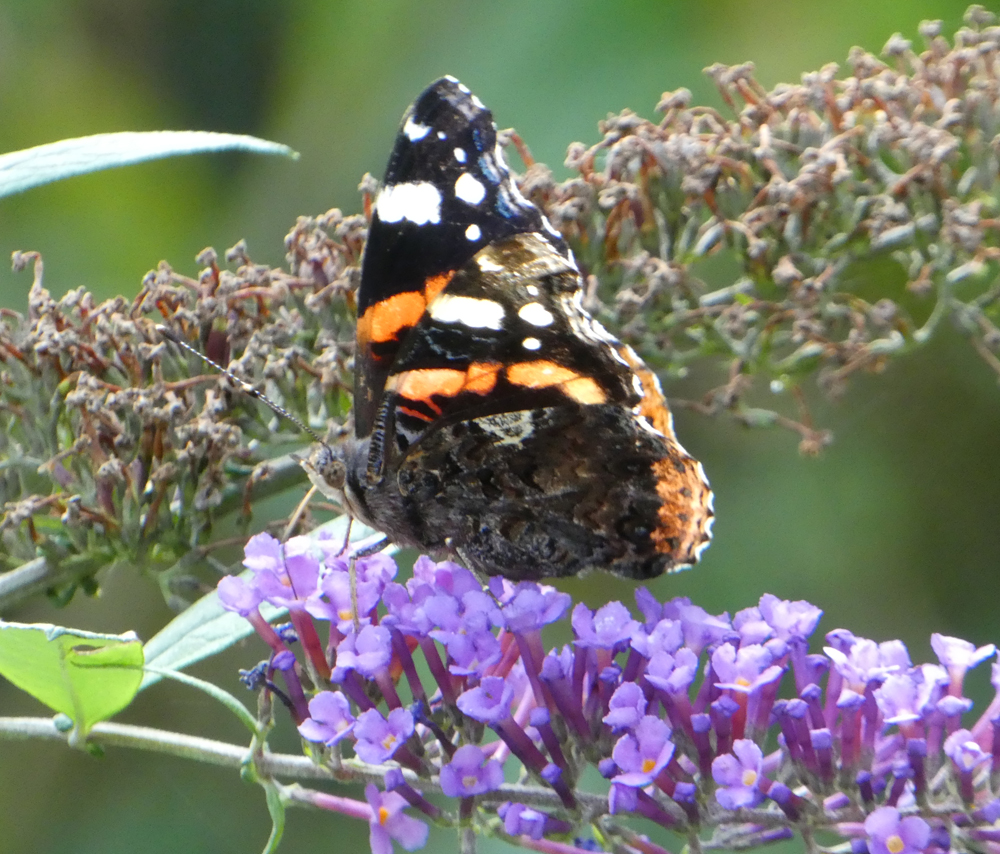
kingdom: Animalia
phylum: Arthropoda
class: Insecta
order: Lepidoptera
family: Nymphalidae
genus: Vanessa
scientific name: Vanessa atalanta
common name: Red admiral
